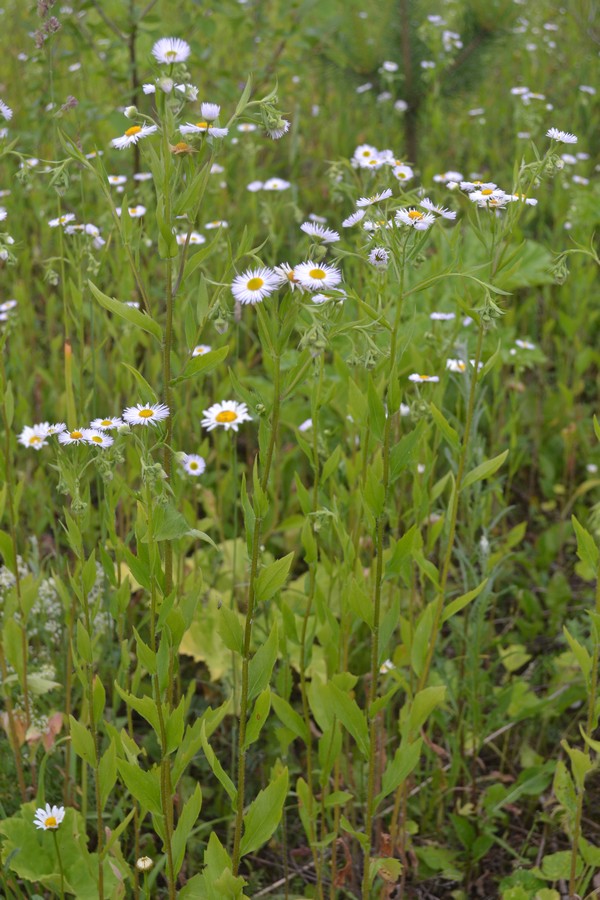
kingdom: Plantae
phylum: Tracheophyta
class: Magnoliopsida
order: Asterales
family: Asteraceae
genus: Erigeron
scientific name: Erigeron annuus
